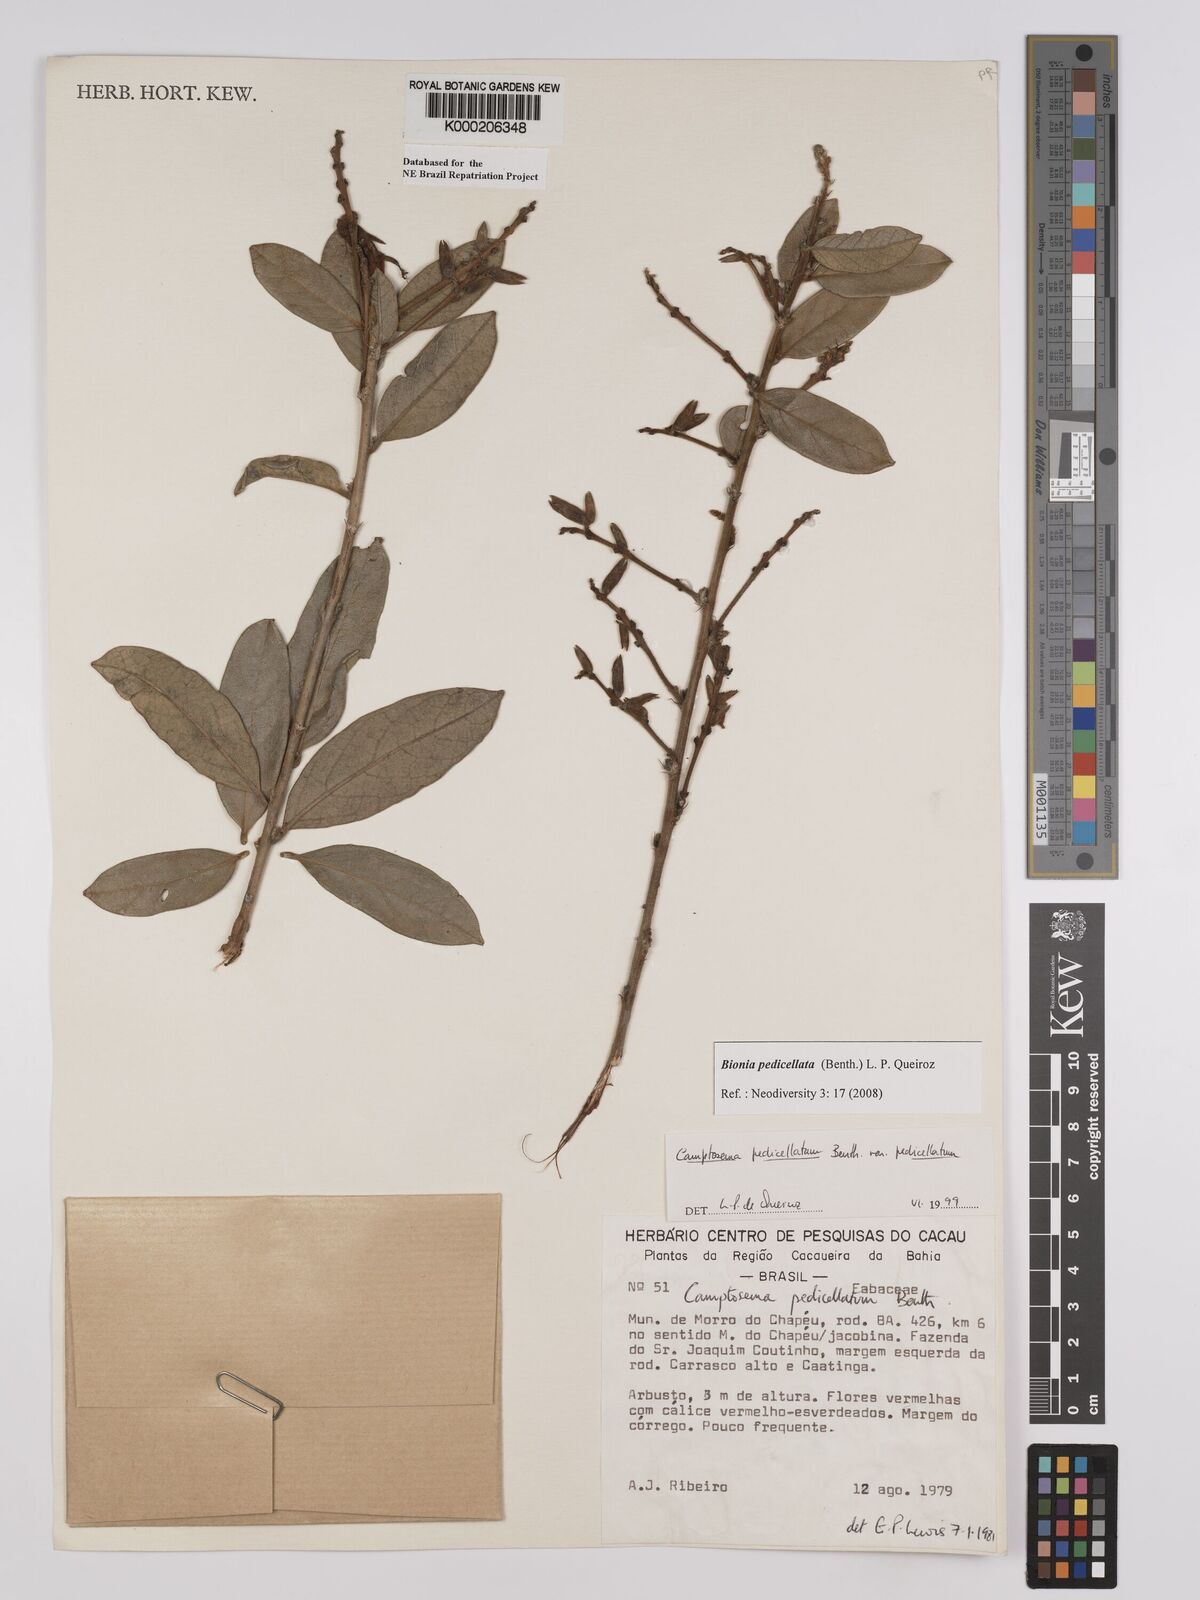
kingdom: Plantae
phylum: Tracheophyta
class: Magnoliopsida
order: Fabales
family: Fabaceae
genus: Camptosema
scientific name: Camptosema pedicellatum
